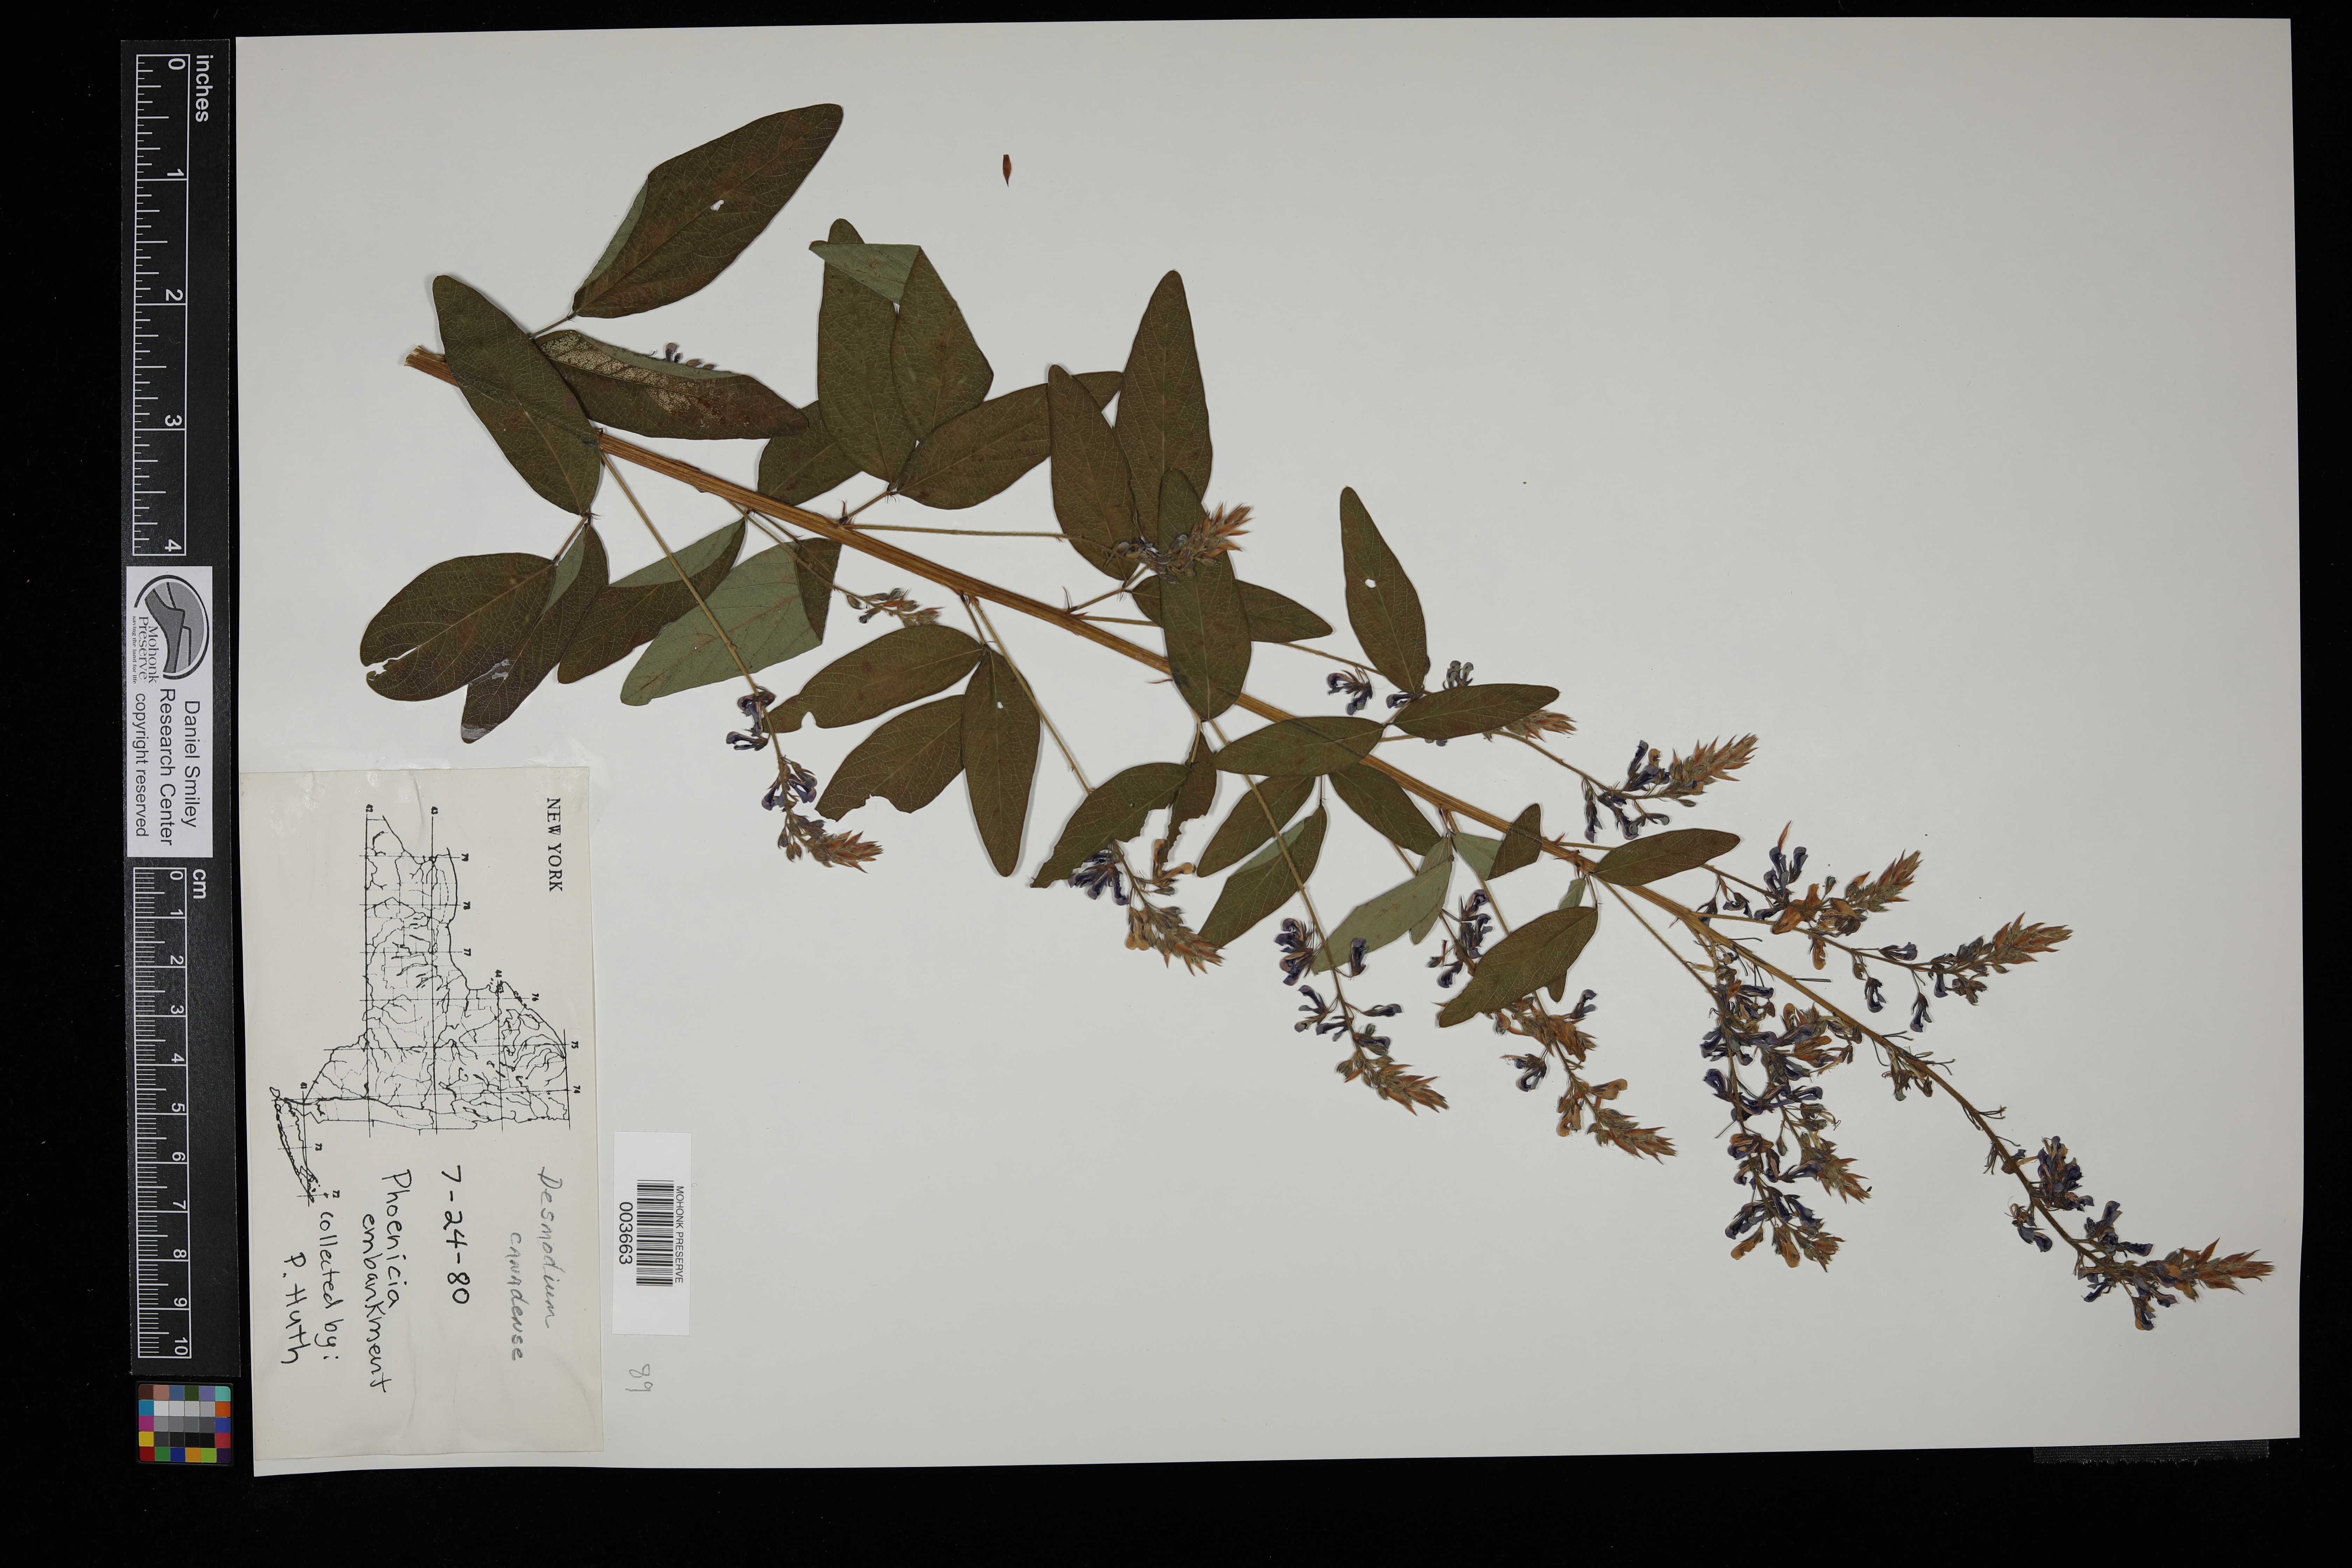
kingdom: Plantae
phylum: Tracheophyta
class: Magnoliopsida
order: Fabales
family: Fabaceae
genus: Desmodium
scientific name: Desmodium canadense
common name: Canada tick-trefoil
